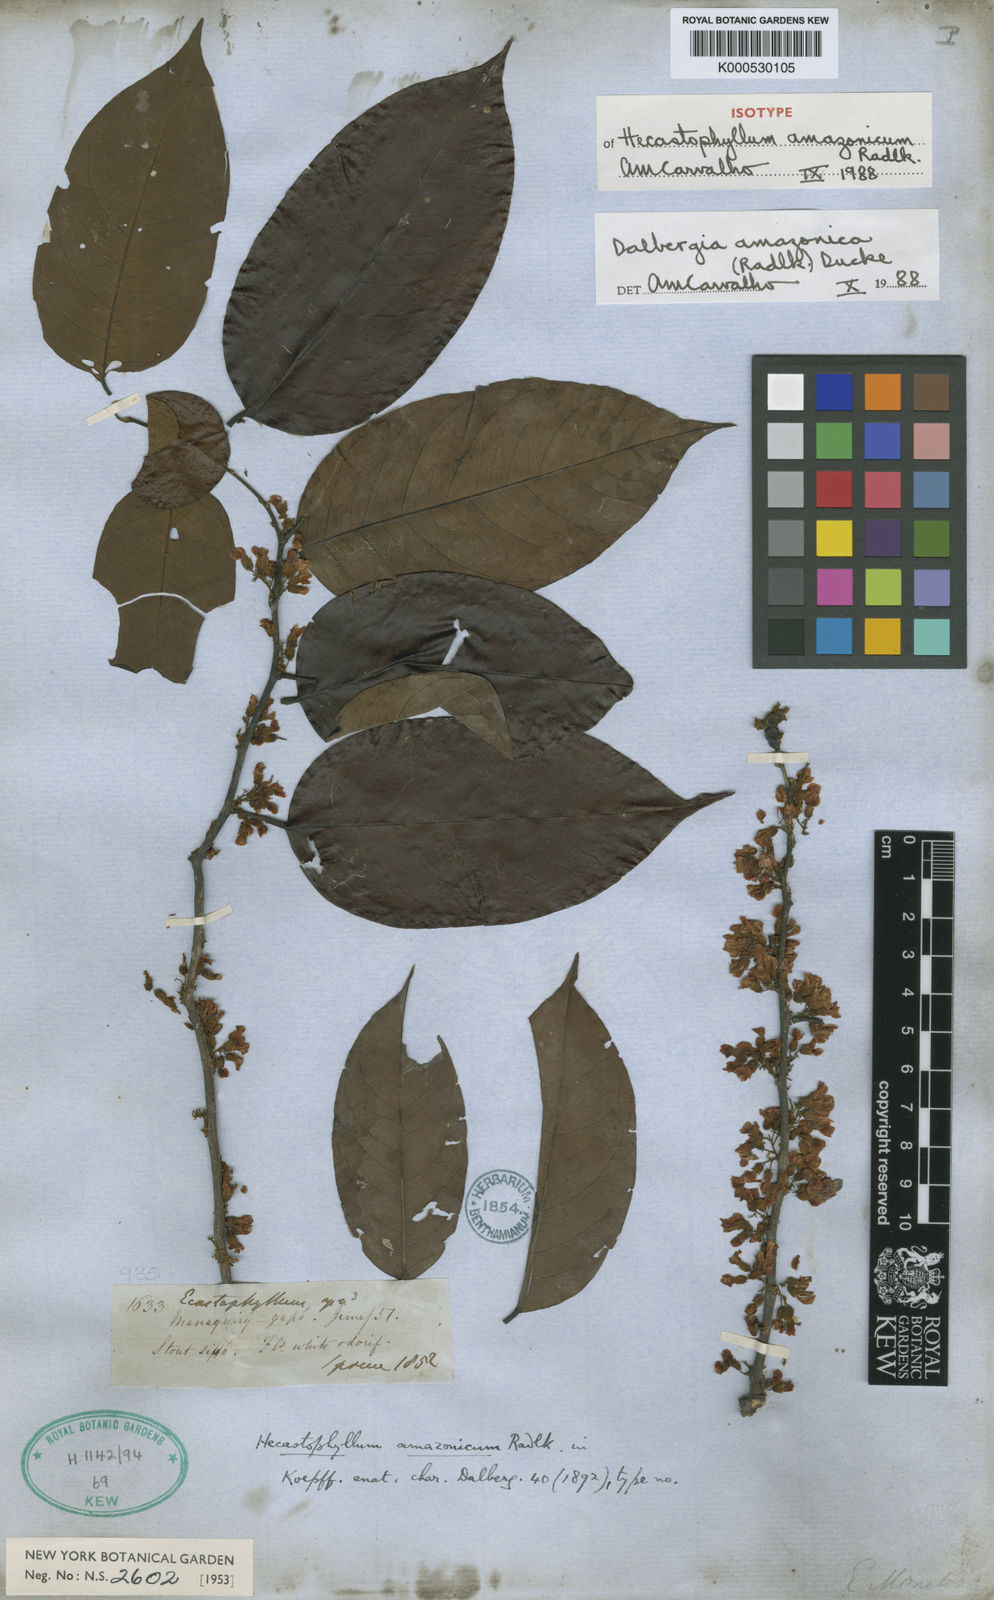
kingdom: Plantae
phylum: Tracheophyta
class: Magnoliopsida
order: Fabales
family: Fabaceae
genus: Dalbergia
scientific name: Dalbergia
